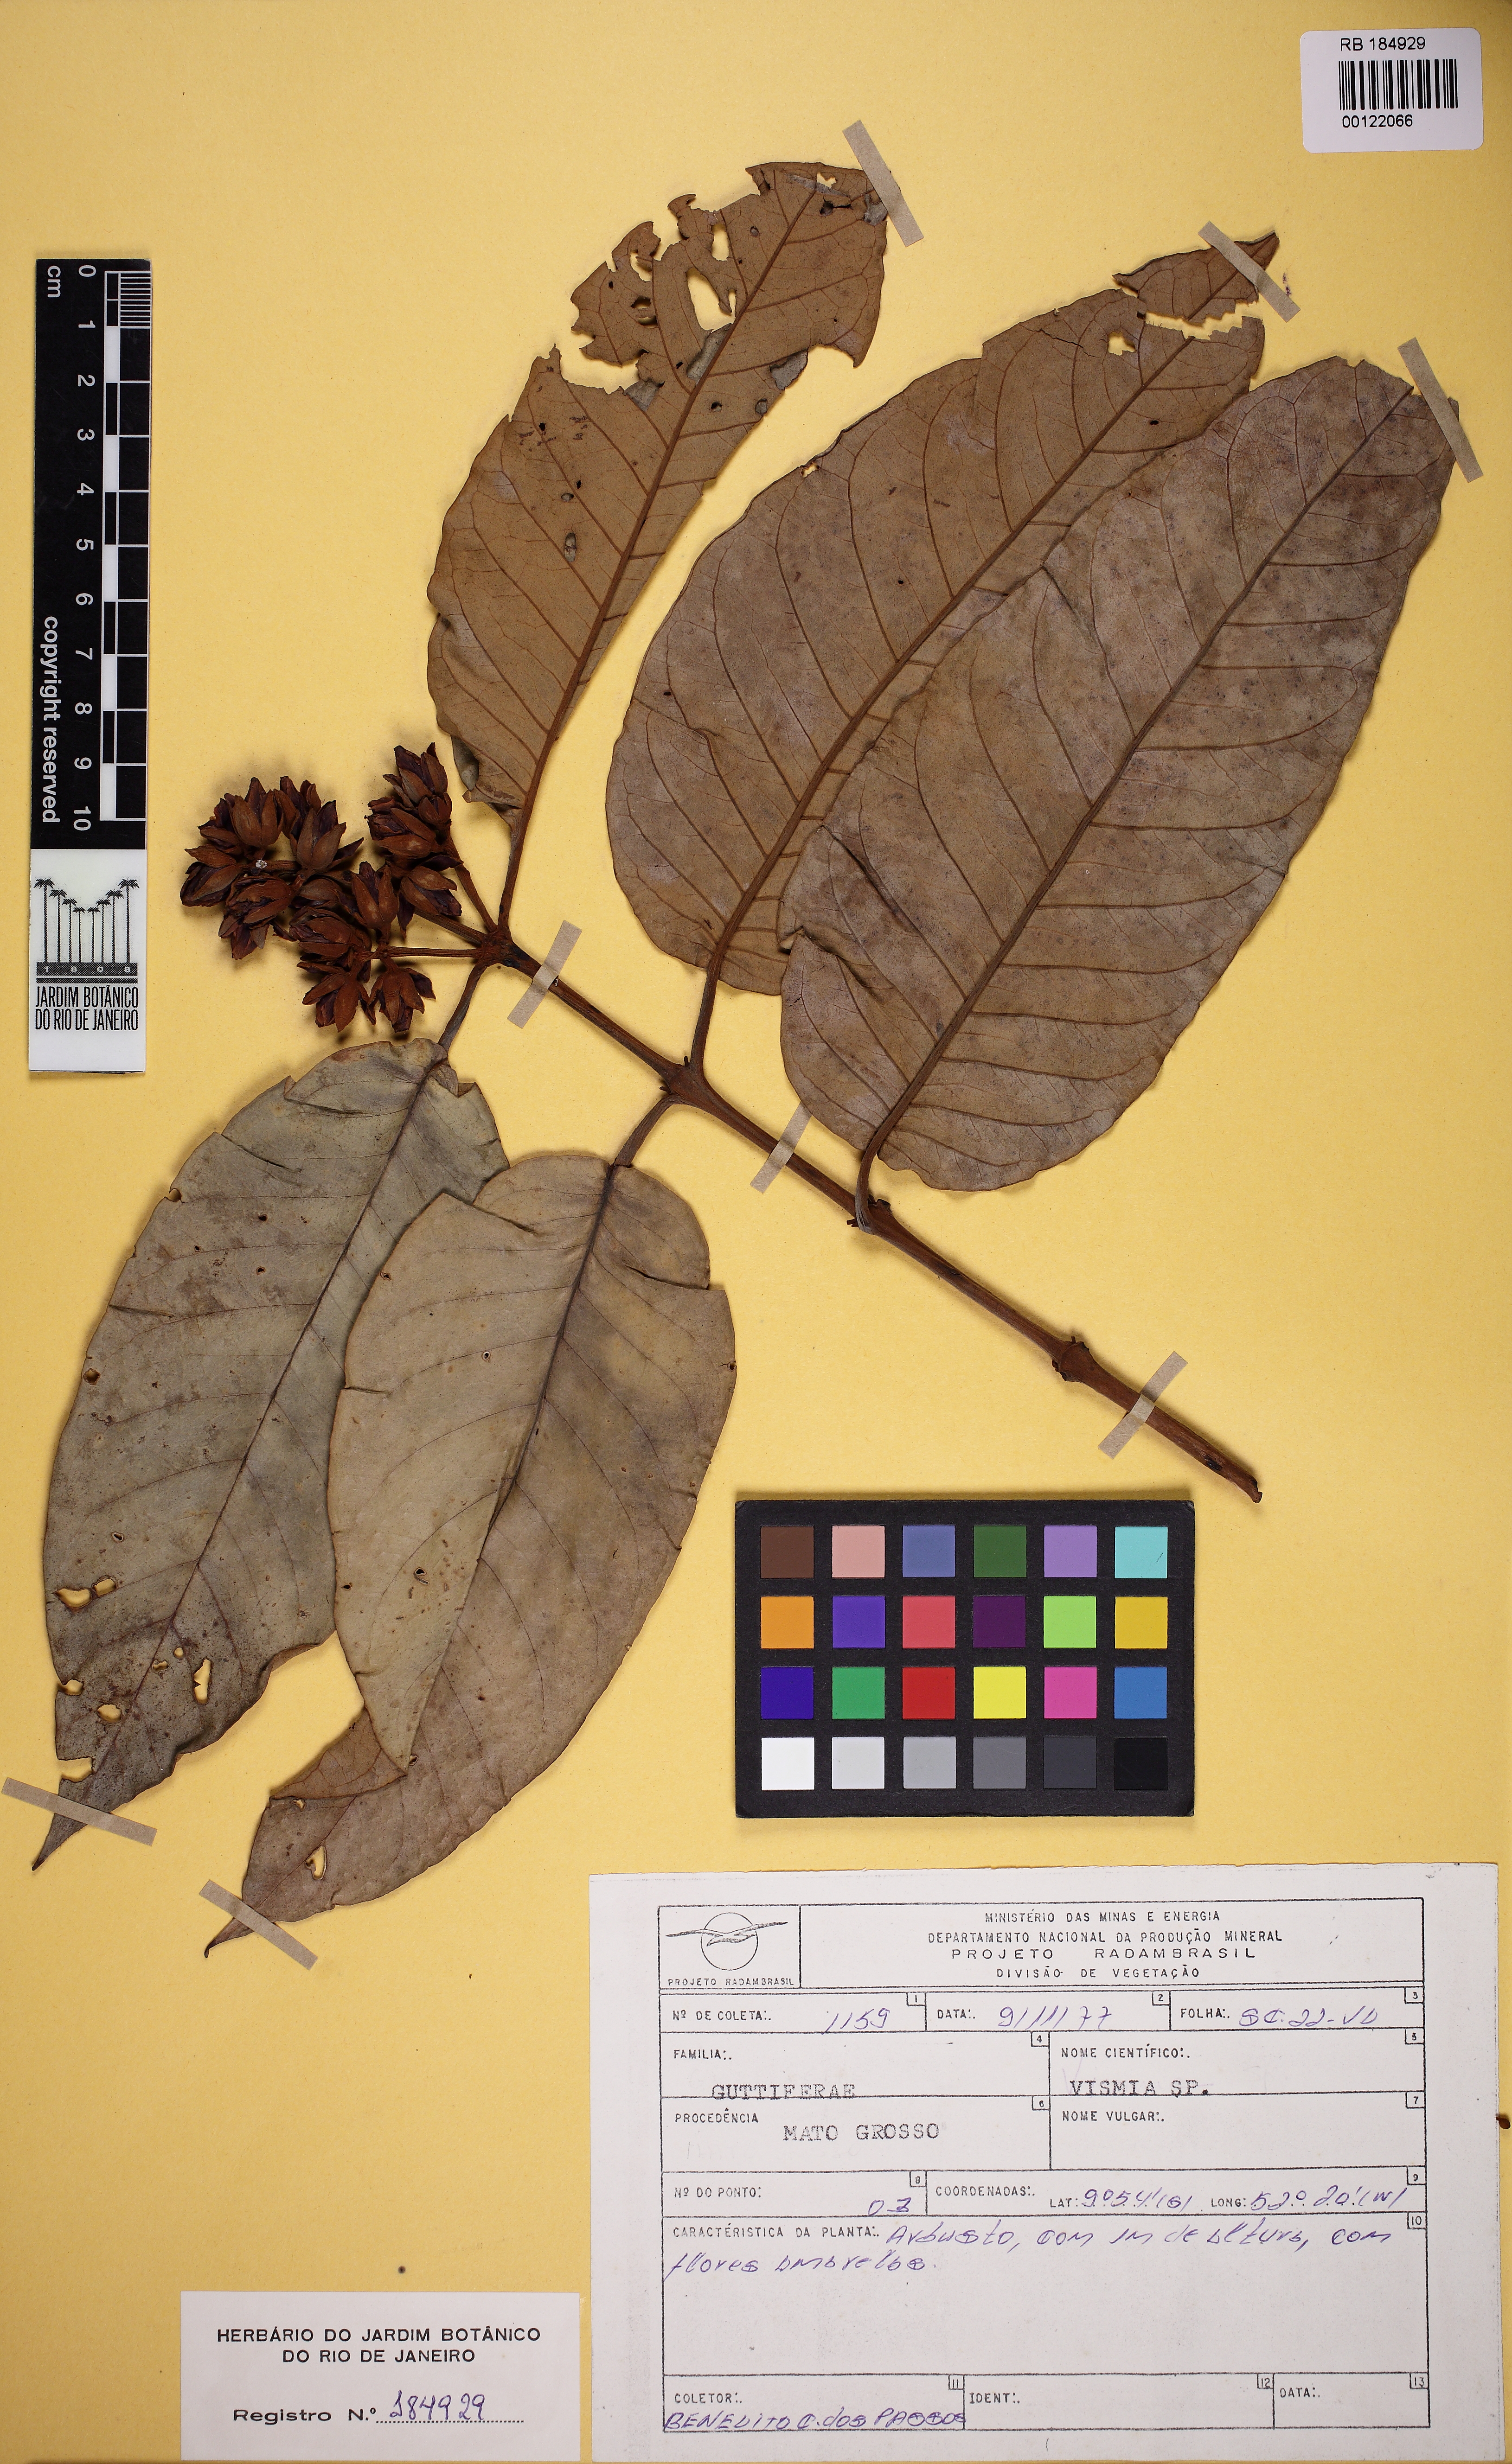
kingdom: Plantae
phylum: Tracheophyta
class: Magnoliopsida
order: Malpighiales
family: Hypericaceae
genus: Vismia
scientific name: Vismia japurensis
